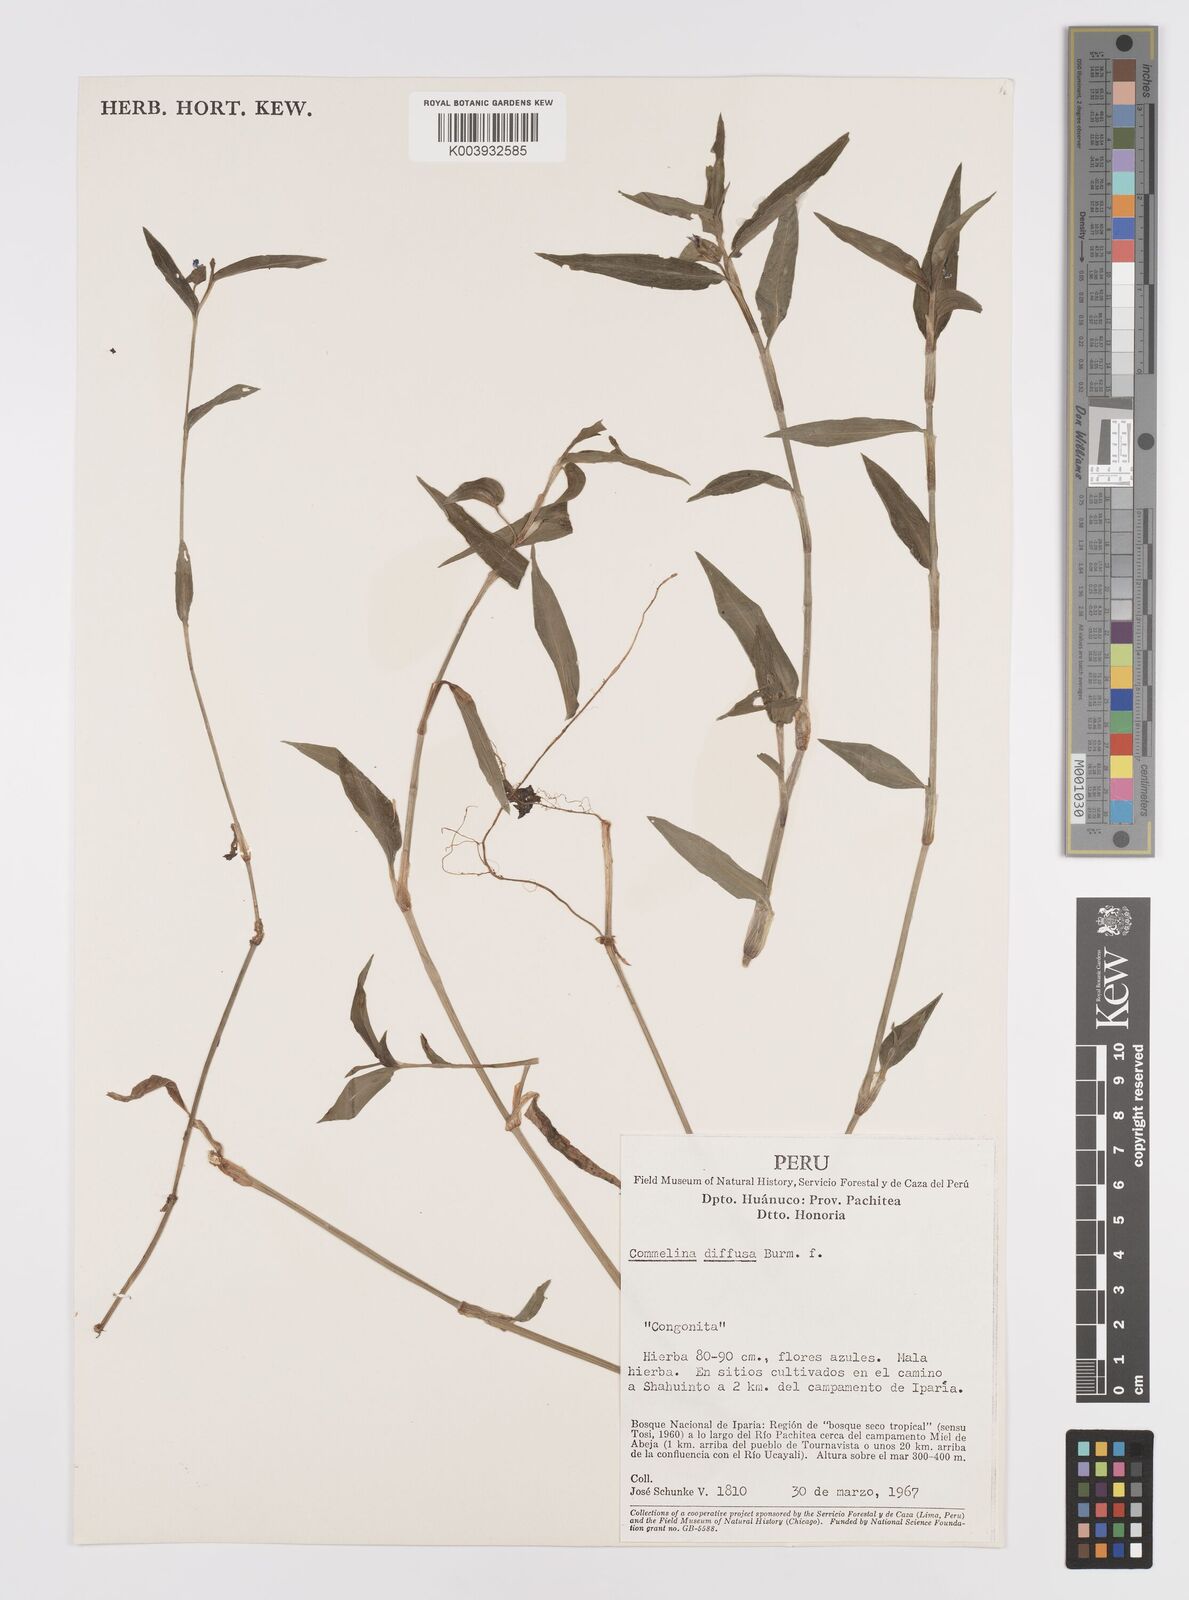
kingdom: Plantae
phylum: Tracheophyta
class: Liliopsida
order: Commelinales
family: Commelinaceae
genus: Commelina
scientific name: Commelina diffusa
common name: Climbing dayflower
